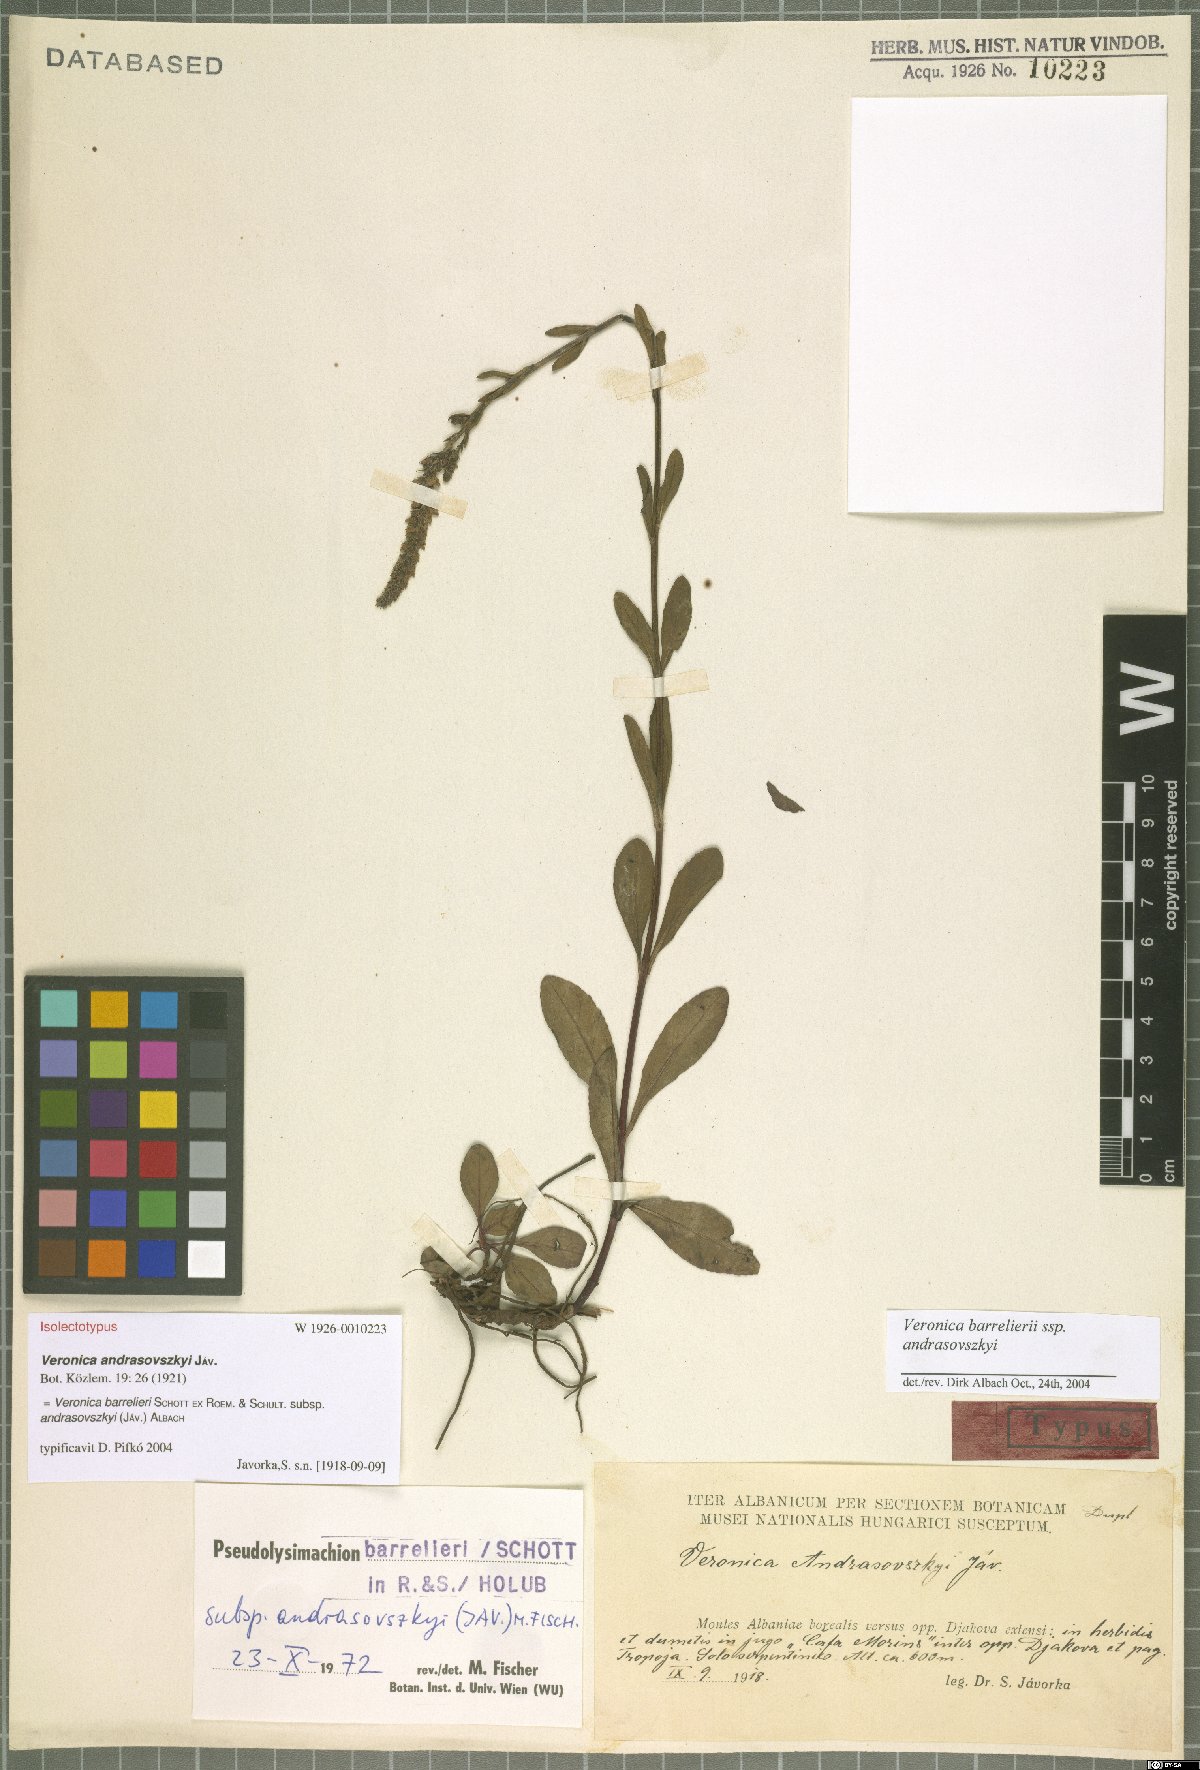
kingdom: Plantae
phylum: Tracheophyta
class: Magnoliopsida
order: Lamiales
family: Plantaginaceae
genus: Veronica
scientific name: Veronica barrelieri
